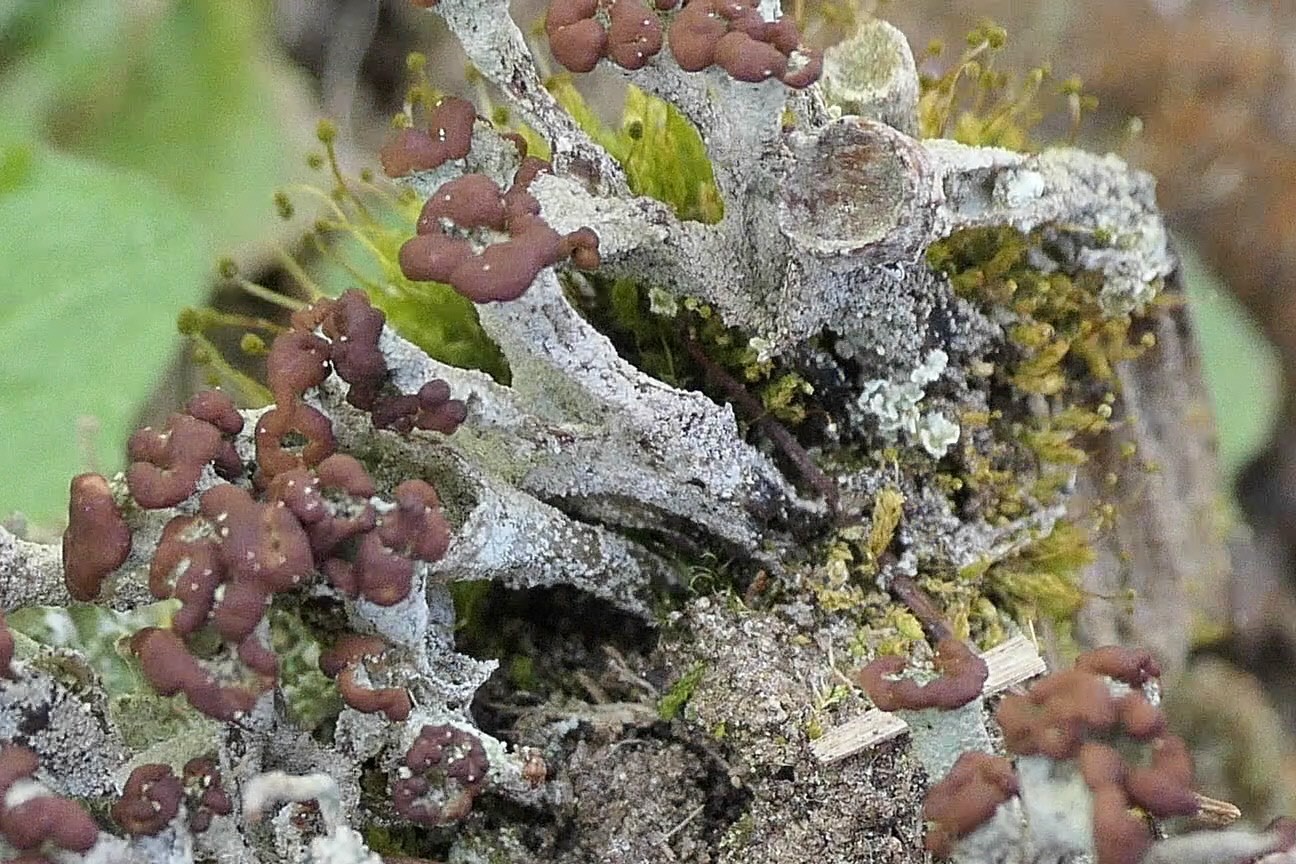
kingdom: Fungi
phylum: Ascomycota
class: Lecanoromycetes
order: Lecanorales
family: Cladoniaceae
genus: Cladonia
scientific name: Cladonia
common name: brungrøn bægerlav
